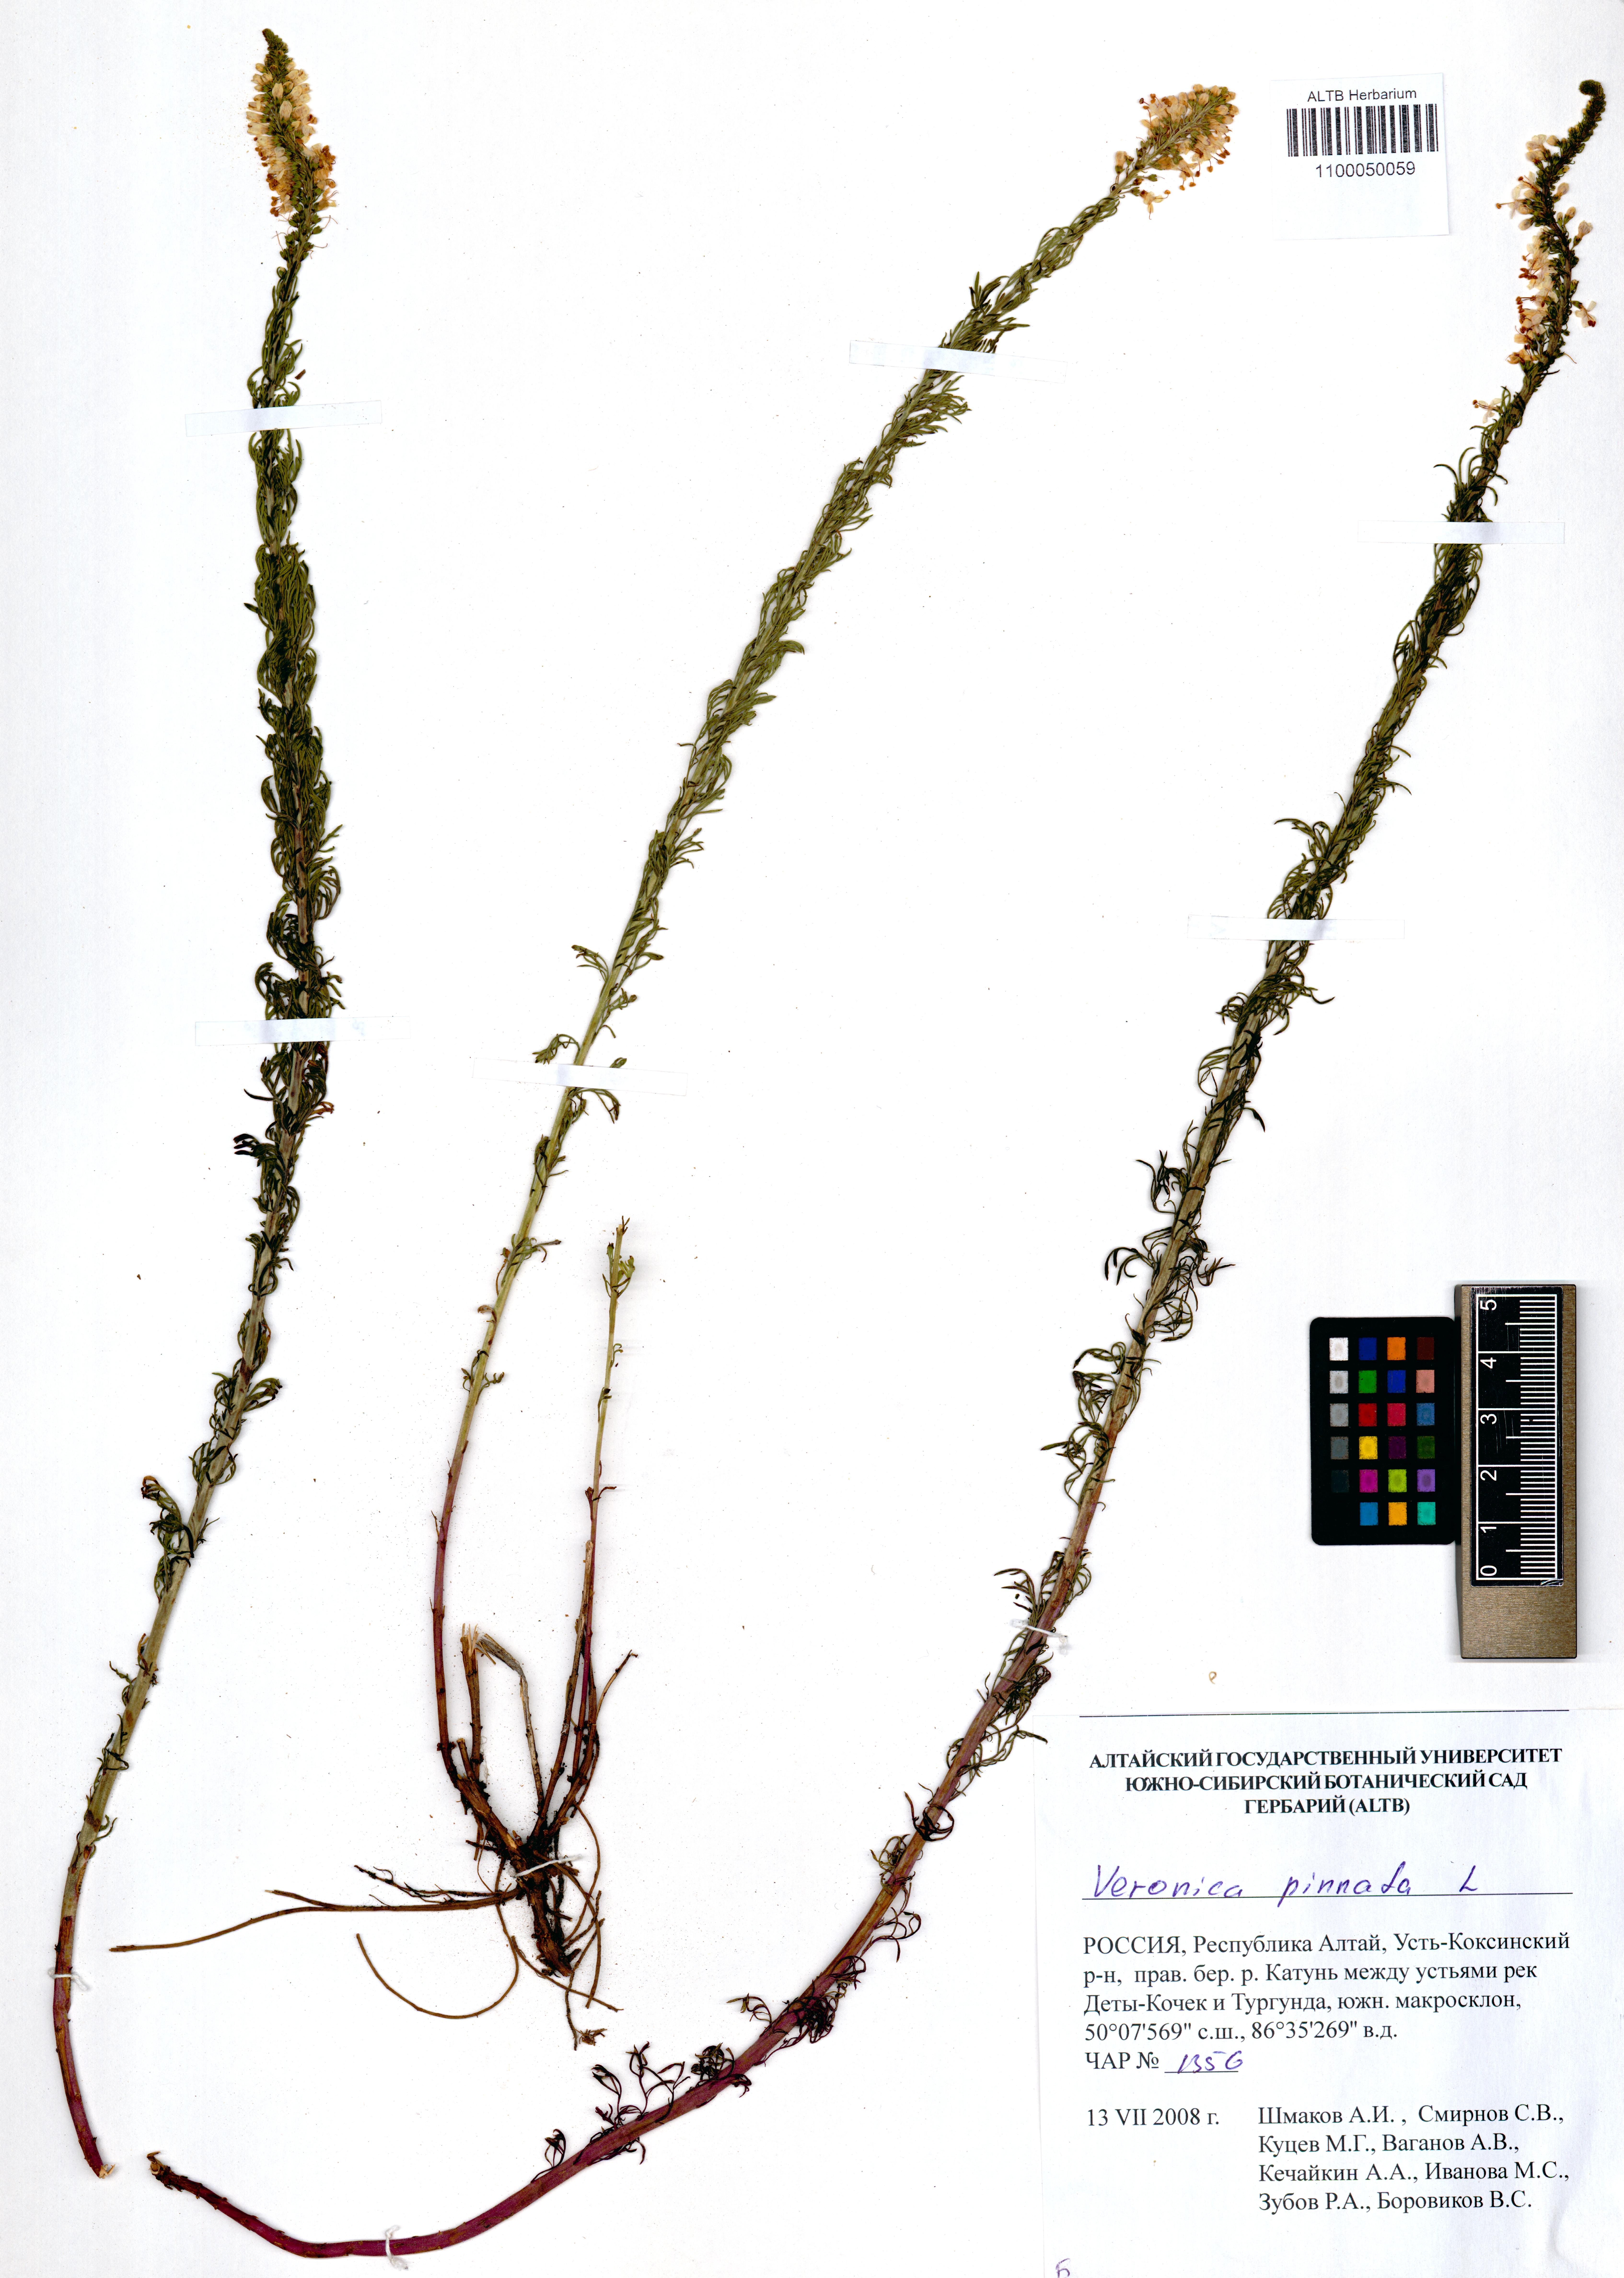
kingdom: Plantae
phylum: Tracheophyta
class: Magnoliopsida
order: Lamiales
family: Plantaginaceae
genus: Veronica
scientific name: Veronica pinnata
